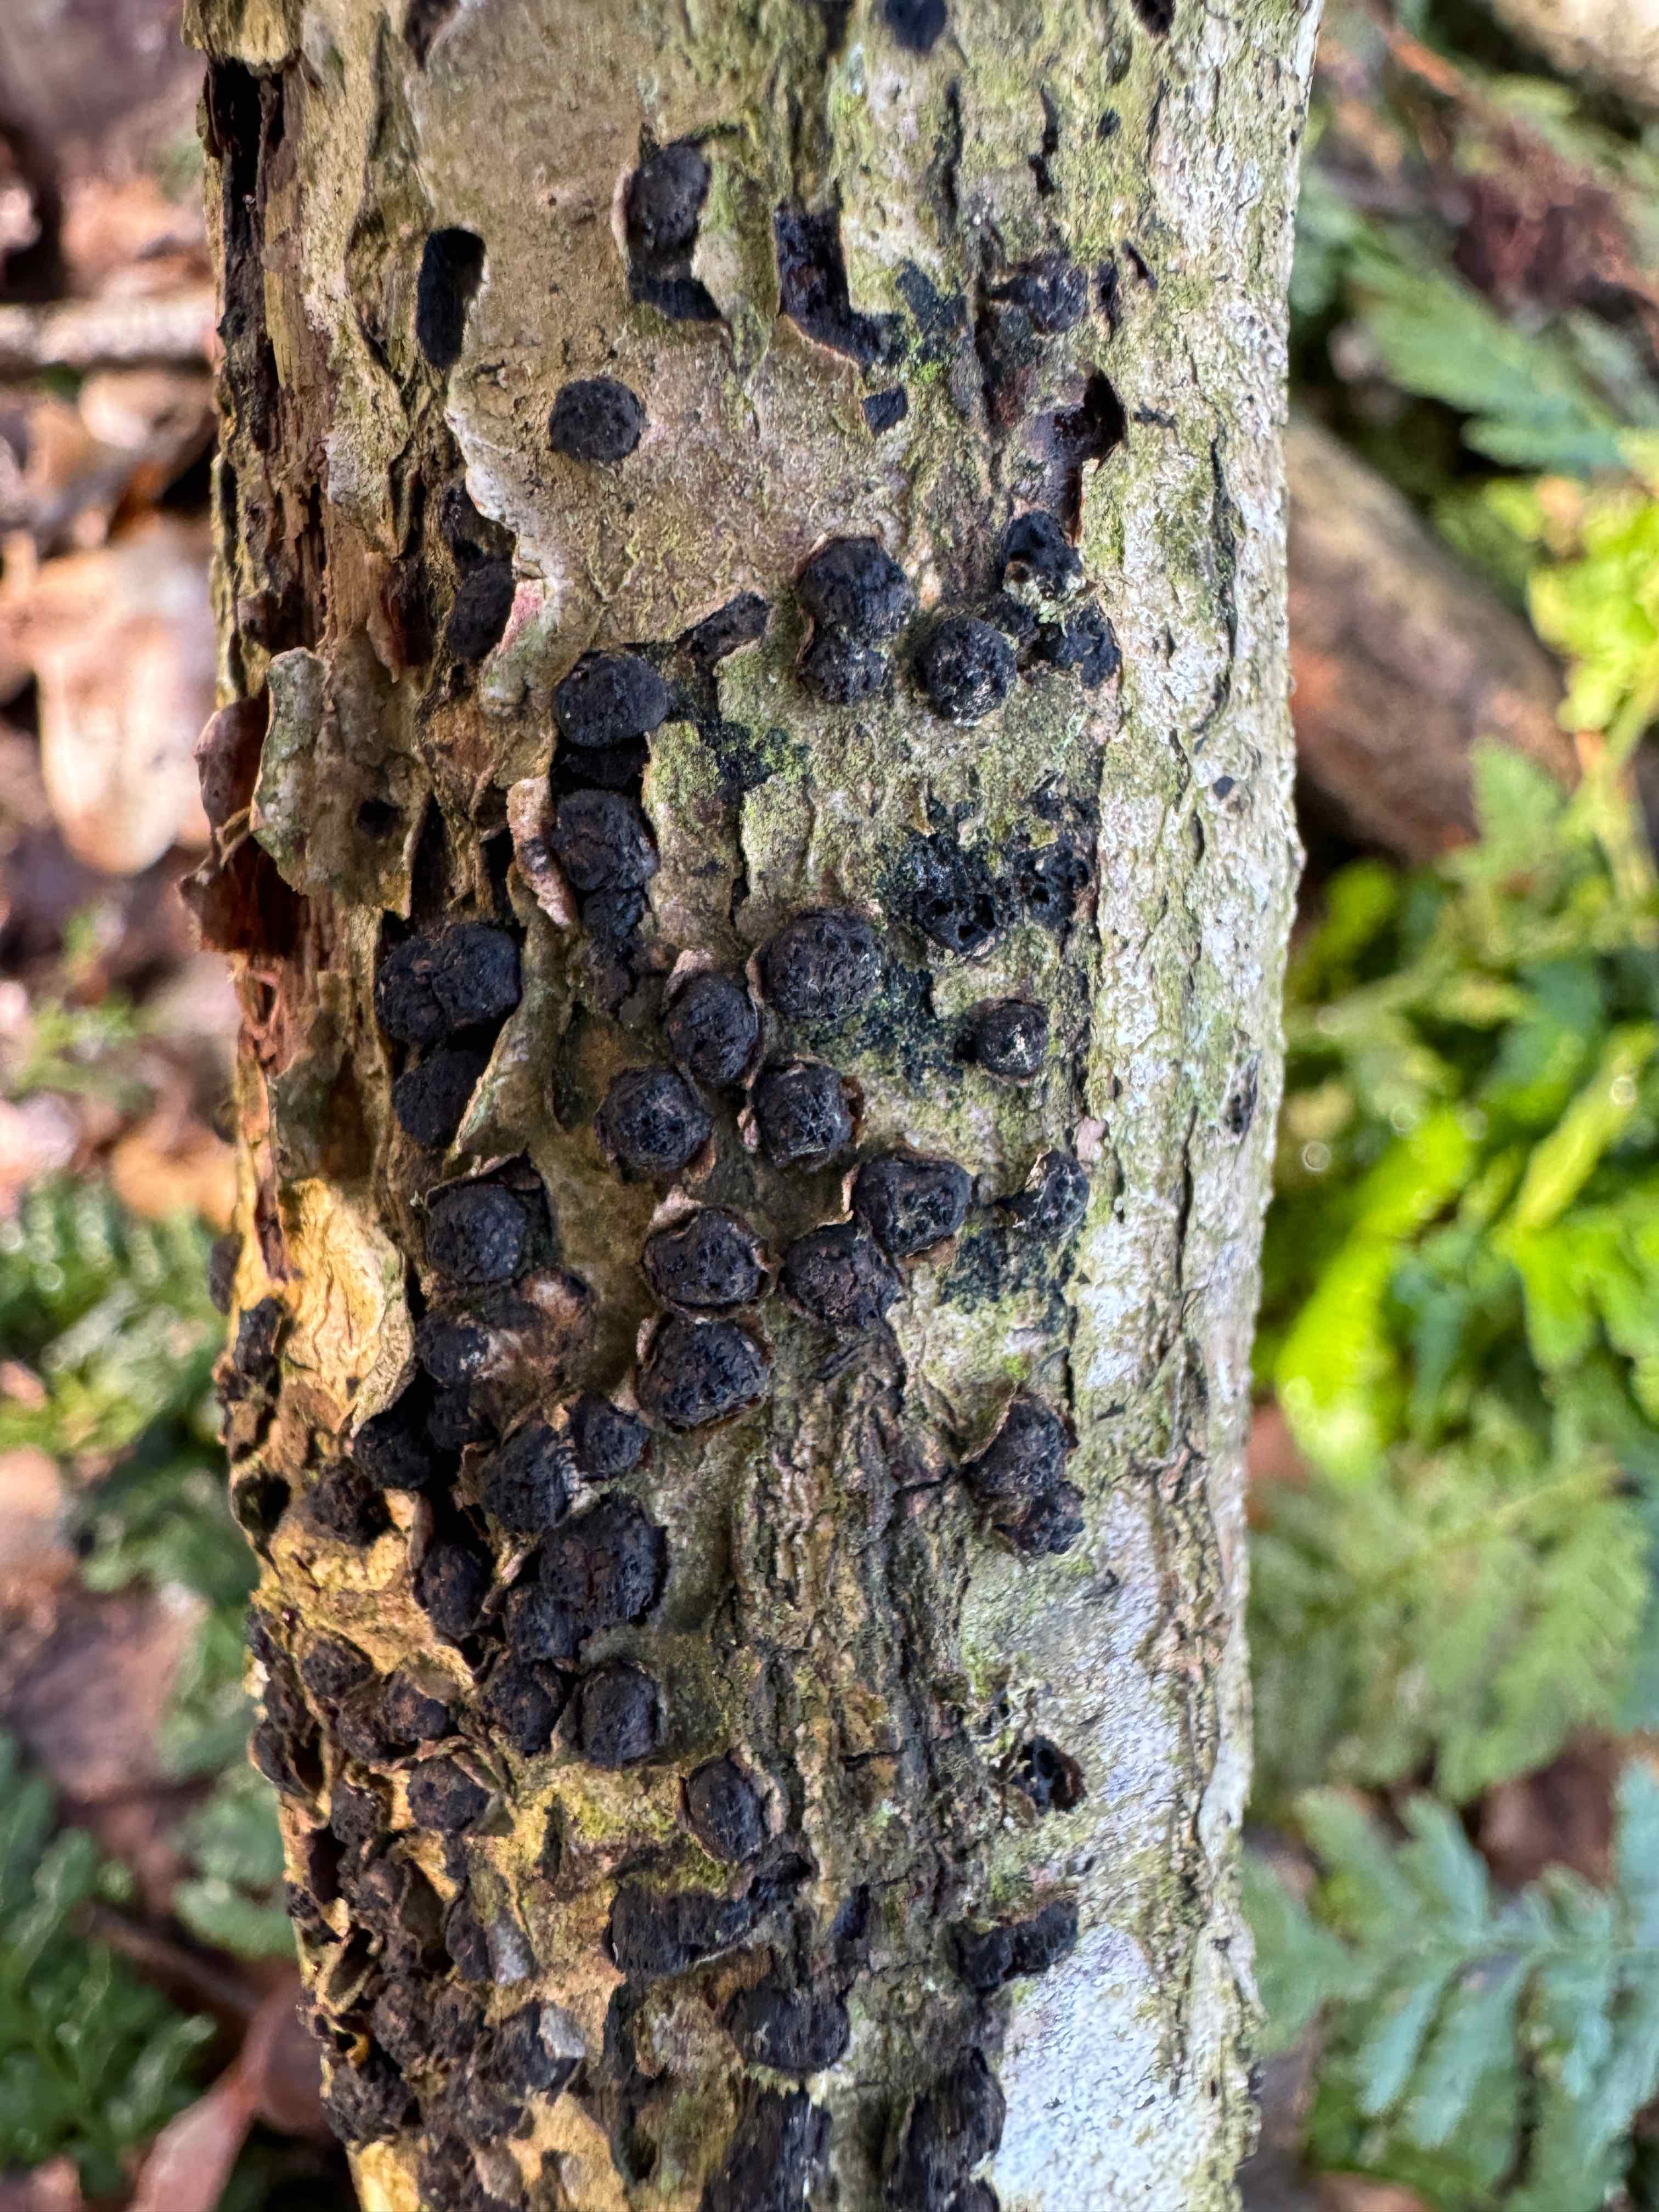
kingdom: Fungi
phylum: Ascomycota
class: Sordariomycetes
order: Xylariales
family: Diatrypaceae
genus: Diatrypella
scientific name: Diatrypella quercina
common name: ege-kulskorpe
